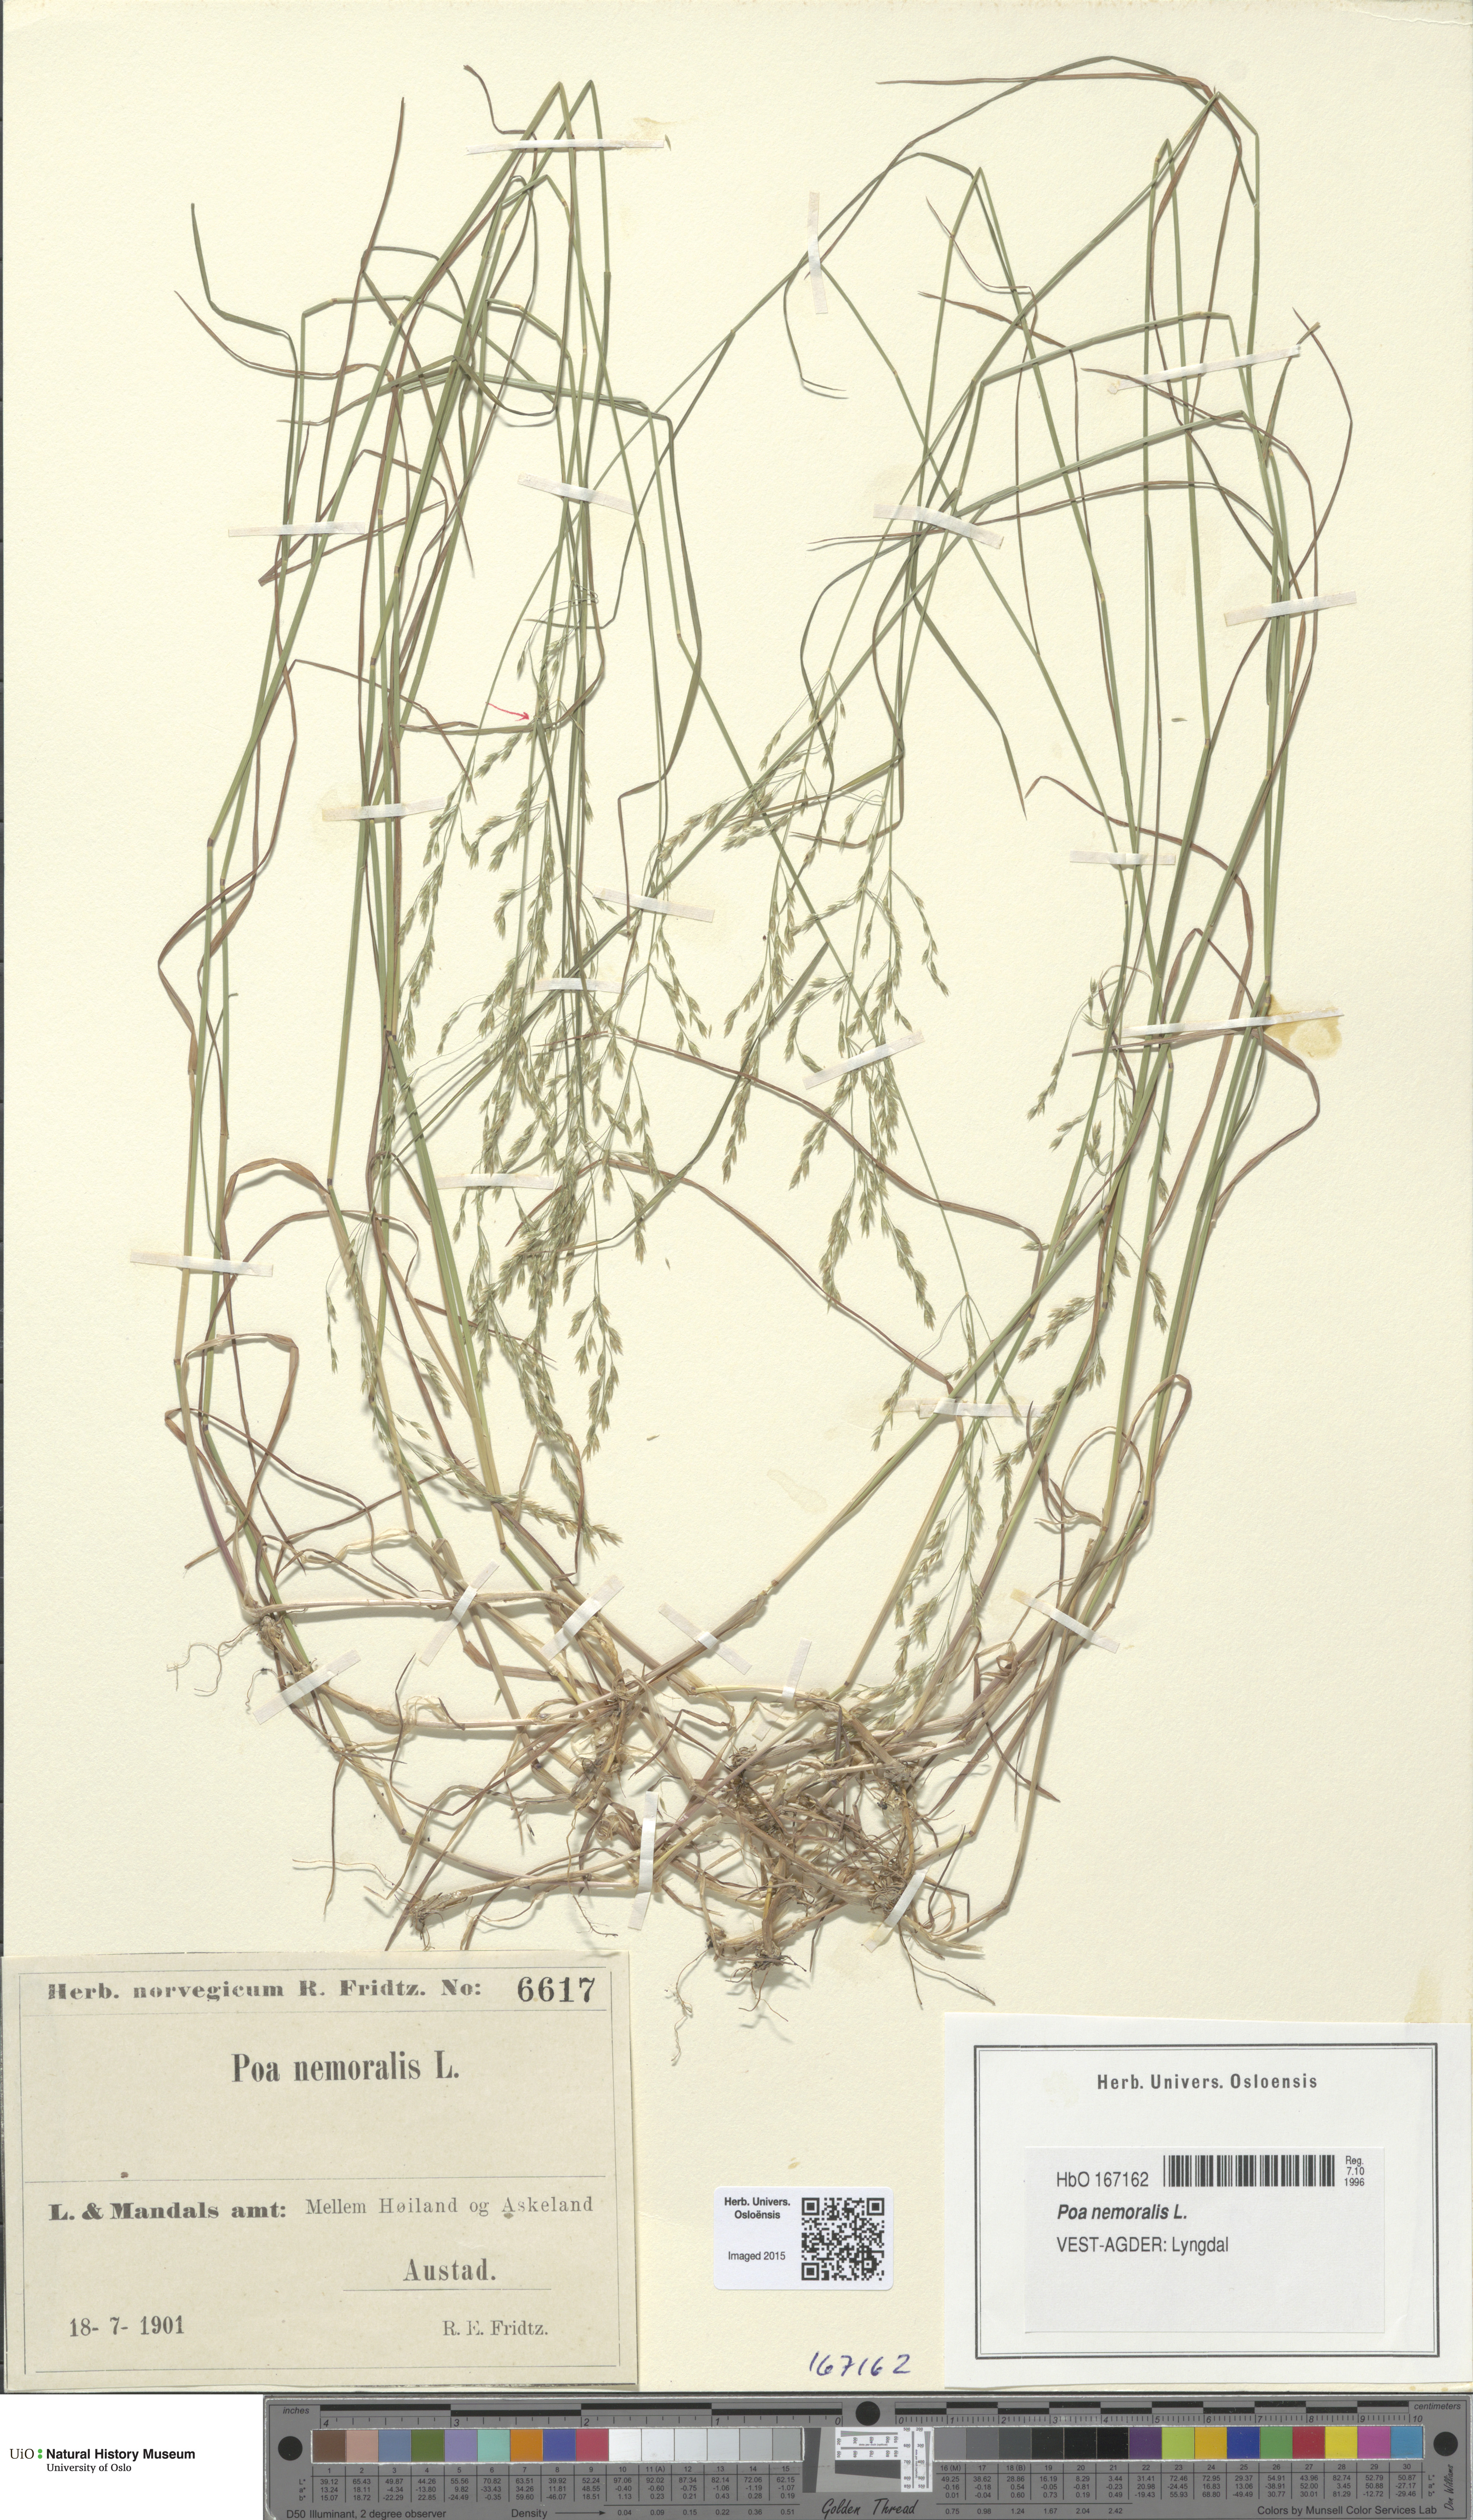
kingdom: Plantae
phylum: Tracheophyta
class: Liliopsida
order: Poales
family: Poaceae
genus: Poa
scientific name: Poa nemoralis
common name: Wood bluegrass
